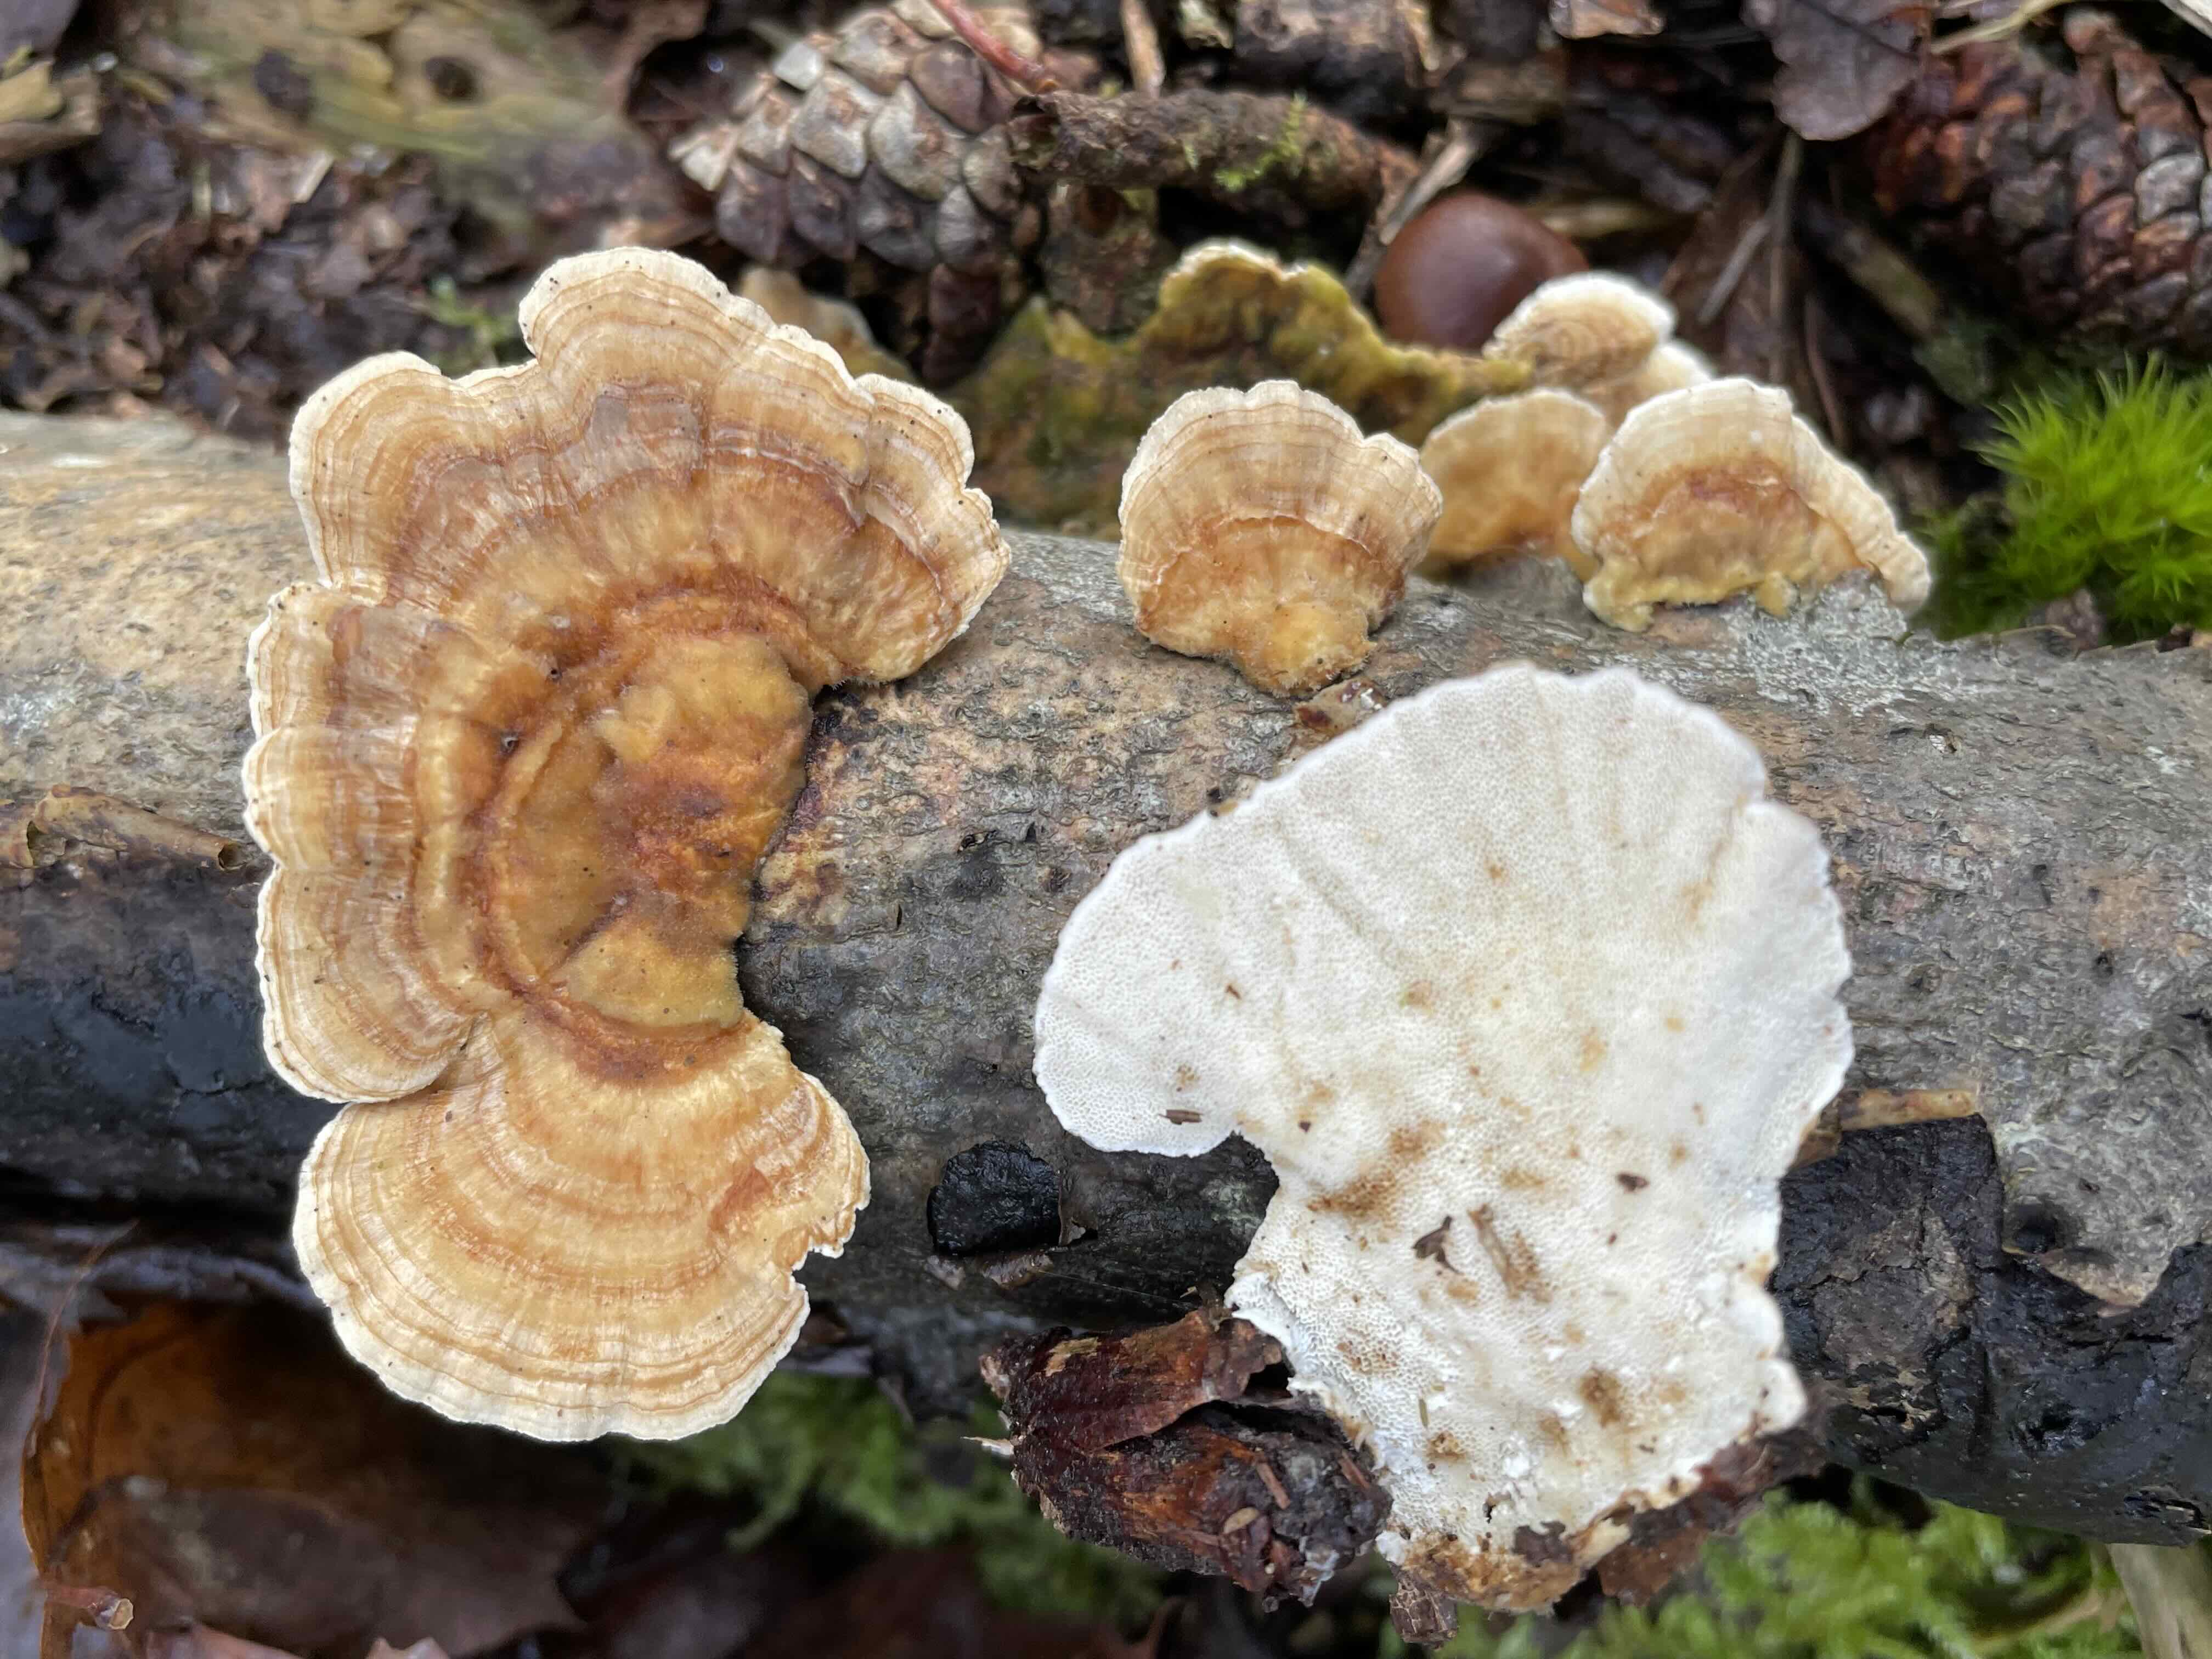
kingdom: Fungi
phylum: Basidiomycota
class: Agaricomycetes
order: Polyporales
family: Polyporaceae
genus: Trametes
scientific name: Trametes ochracea
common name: bæltet læderporesvamp
